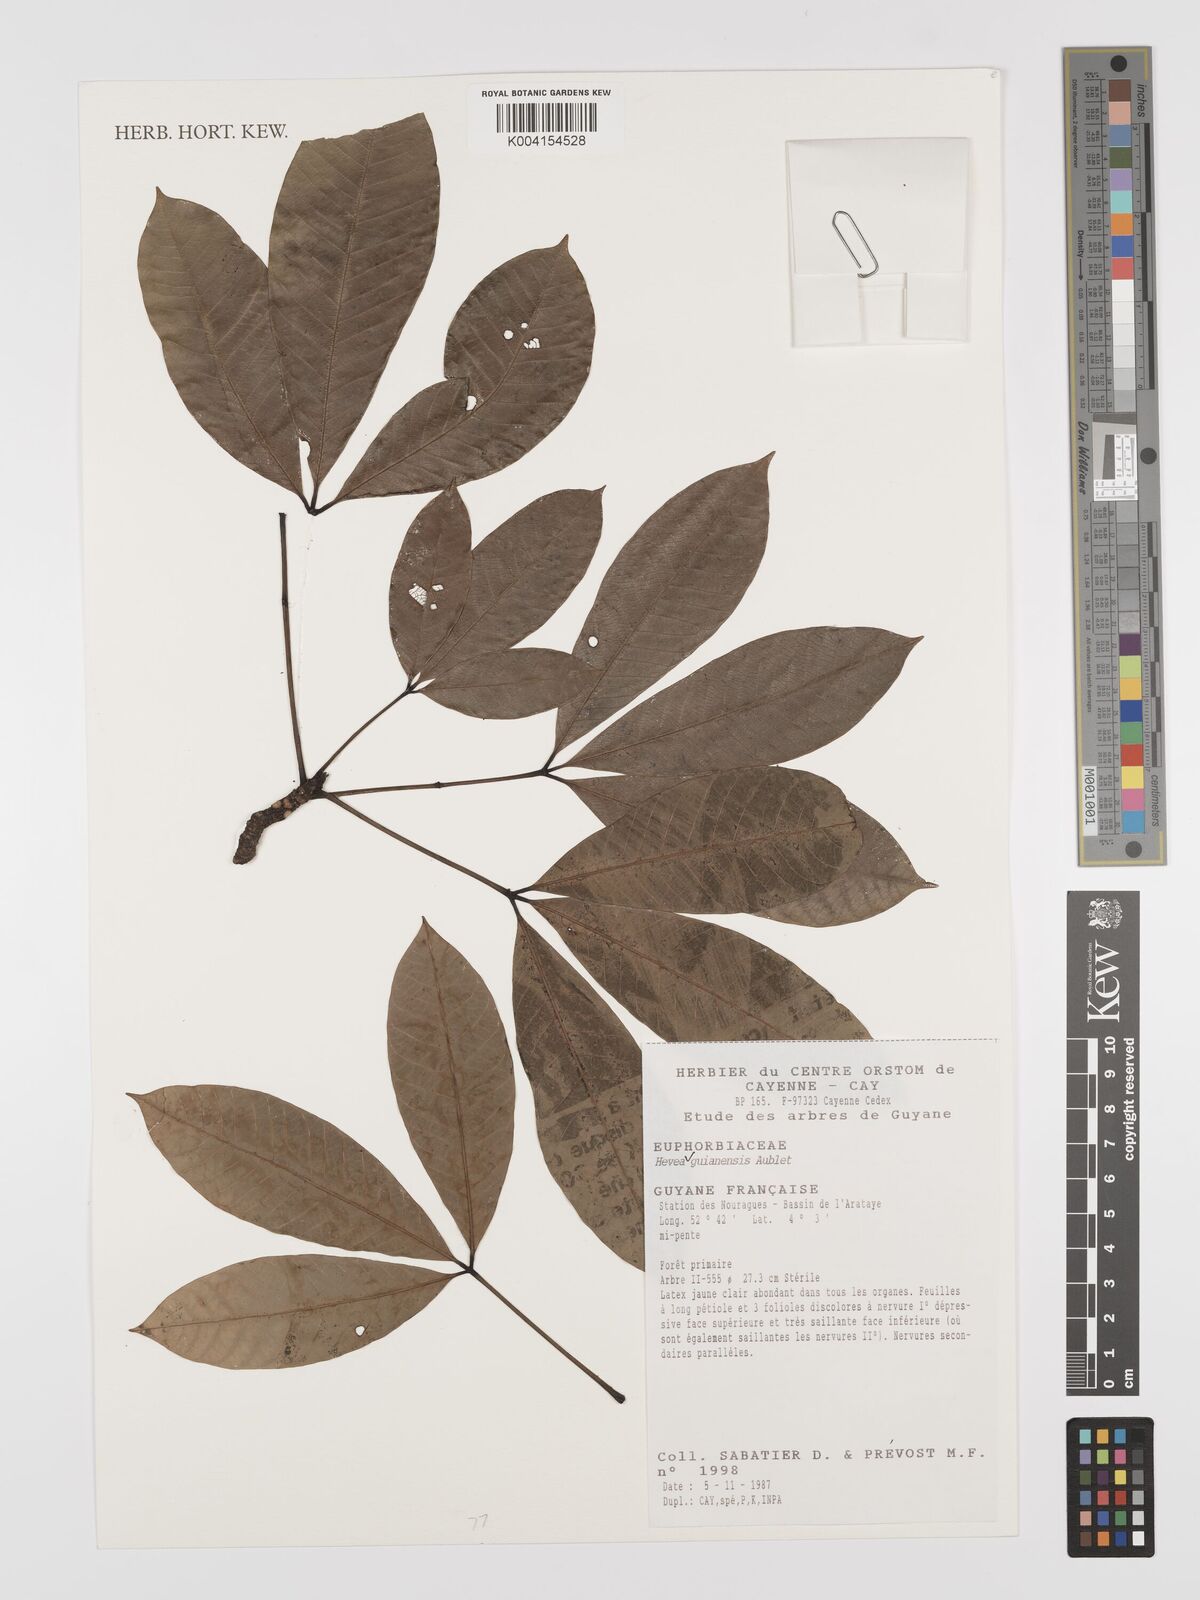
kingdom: Plantae
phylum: Tracheophyta
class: Magnoliopsida
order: Malpighiales
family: Euphorbiaceae
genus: Hevea
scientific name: Hevea guianensis
